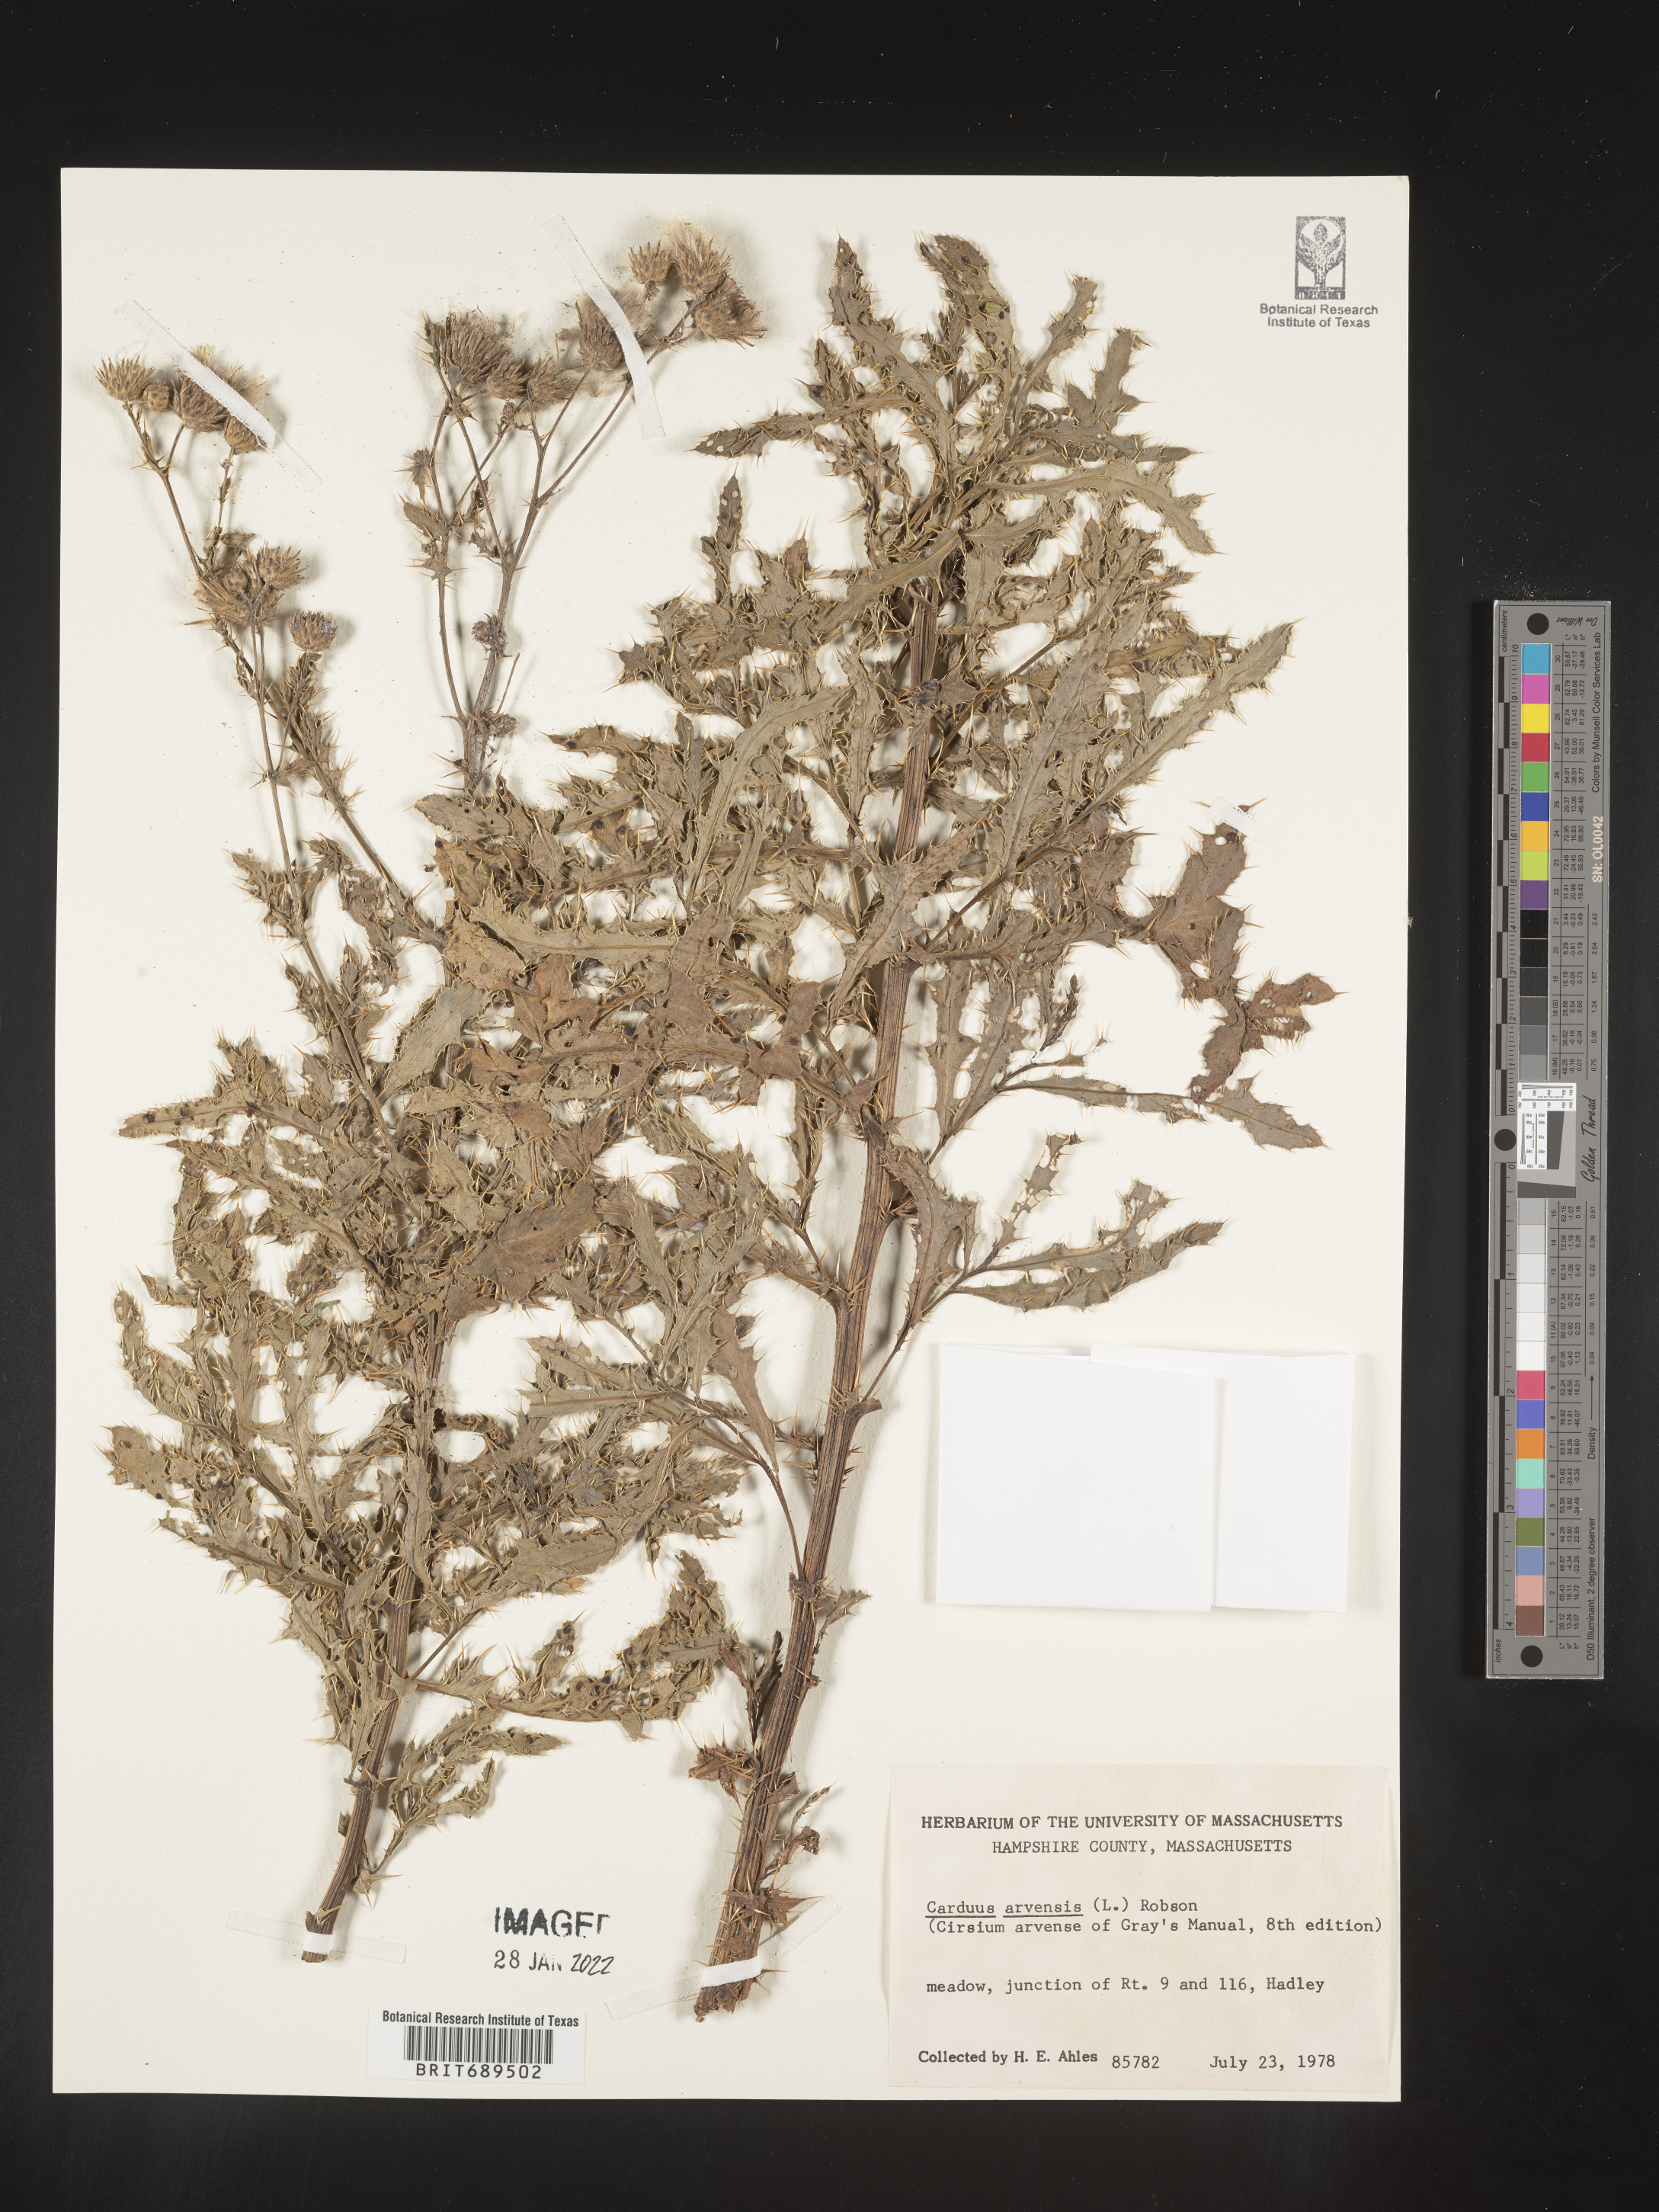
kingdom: Plantae
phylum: Tracheophyta
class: Magnoliopsida
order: Asterales
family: Asteraceae
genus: Cirsium
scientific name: Cirsium arvense
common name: Creeping thistle
